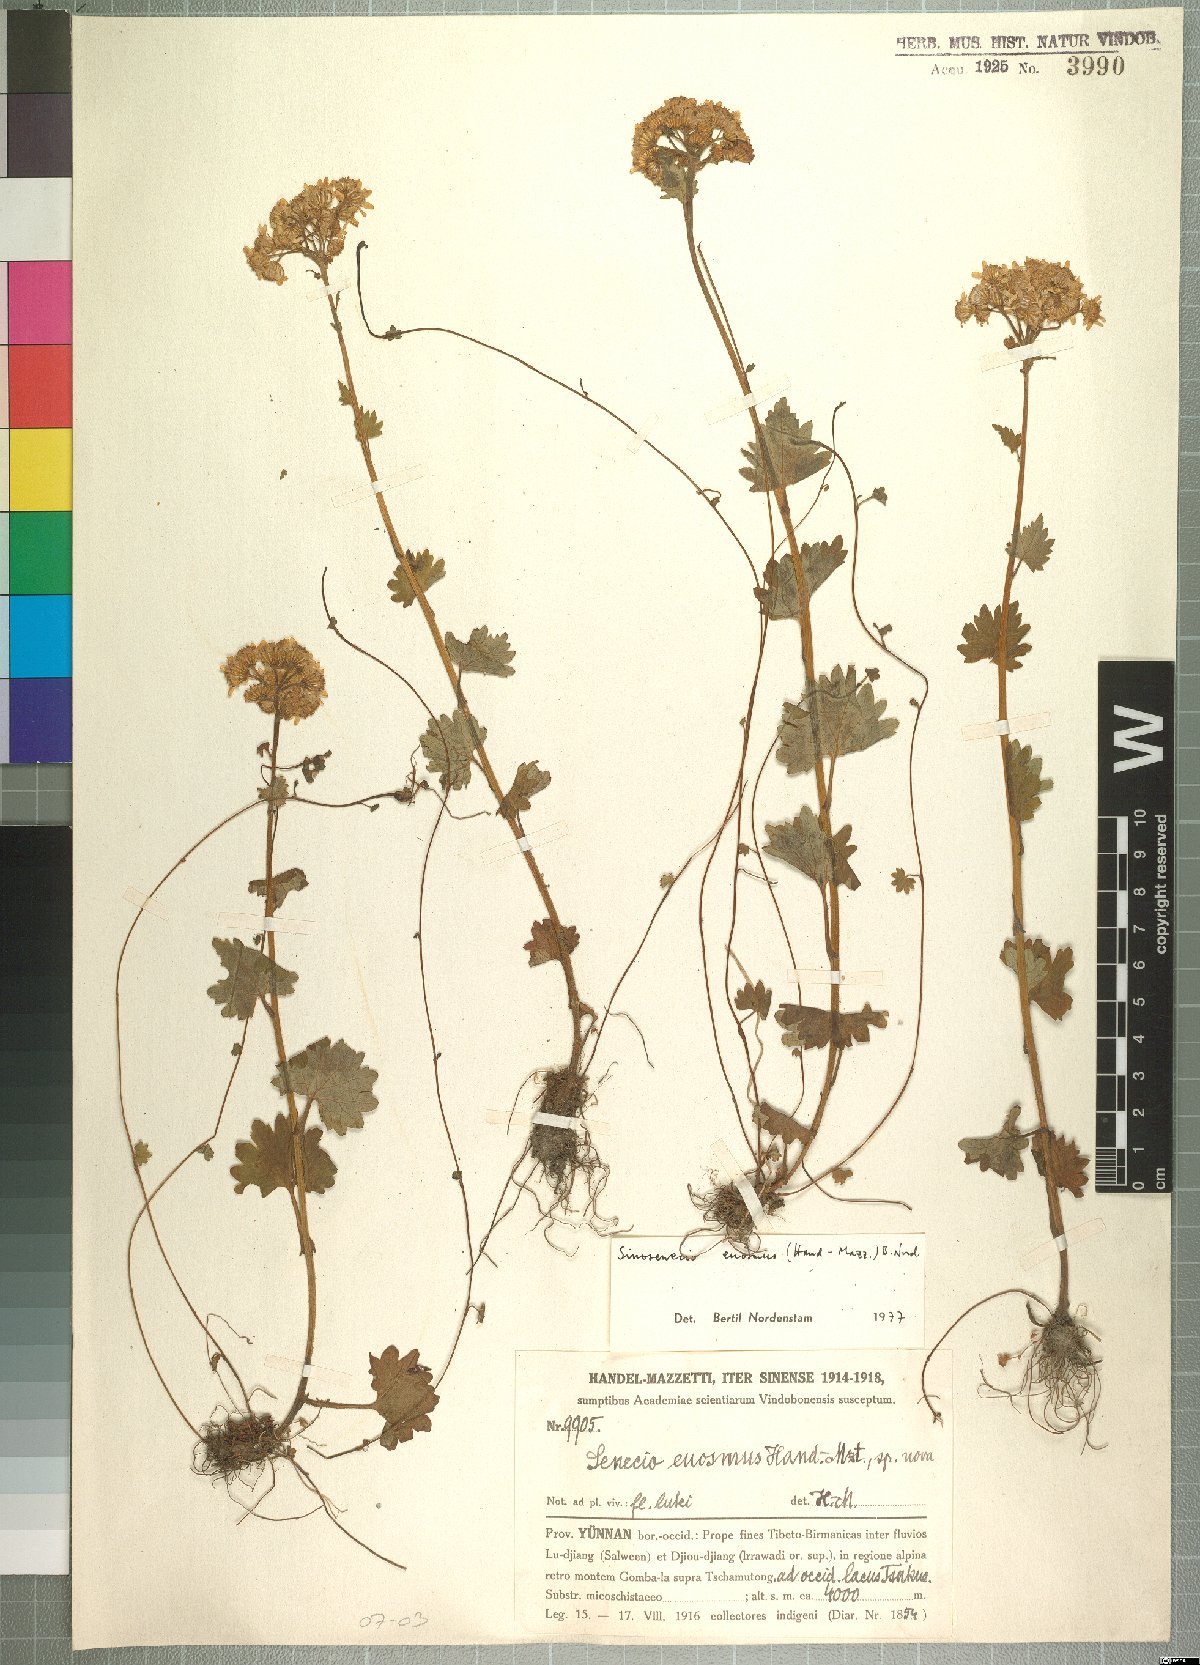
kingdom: Plantae
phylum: Tracheophyta
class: Magnoliopsida
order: Asterales
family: Asteraceae
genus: Sinosenecio
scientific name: Sinosenecio euosmus
